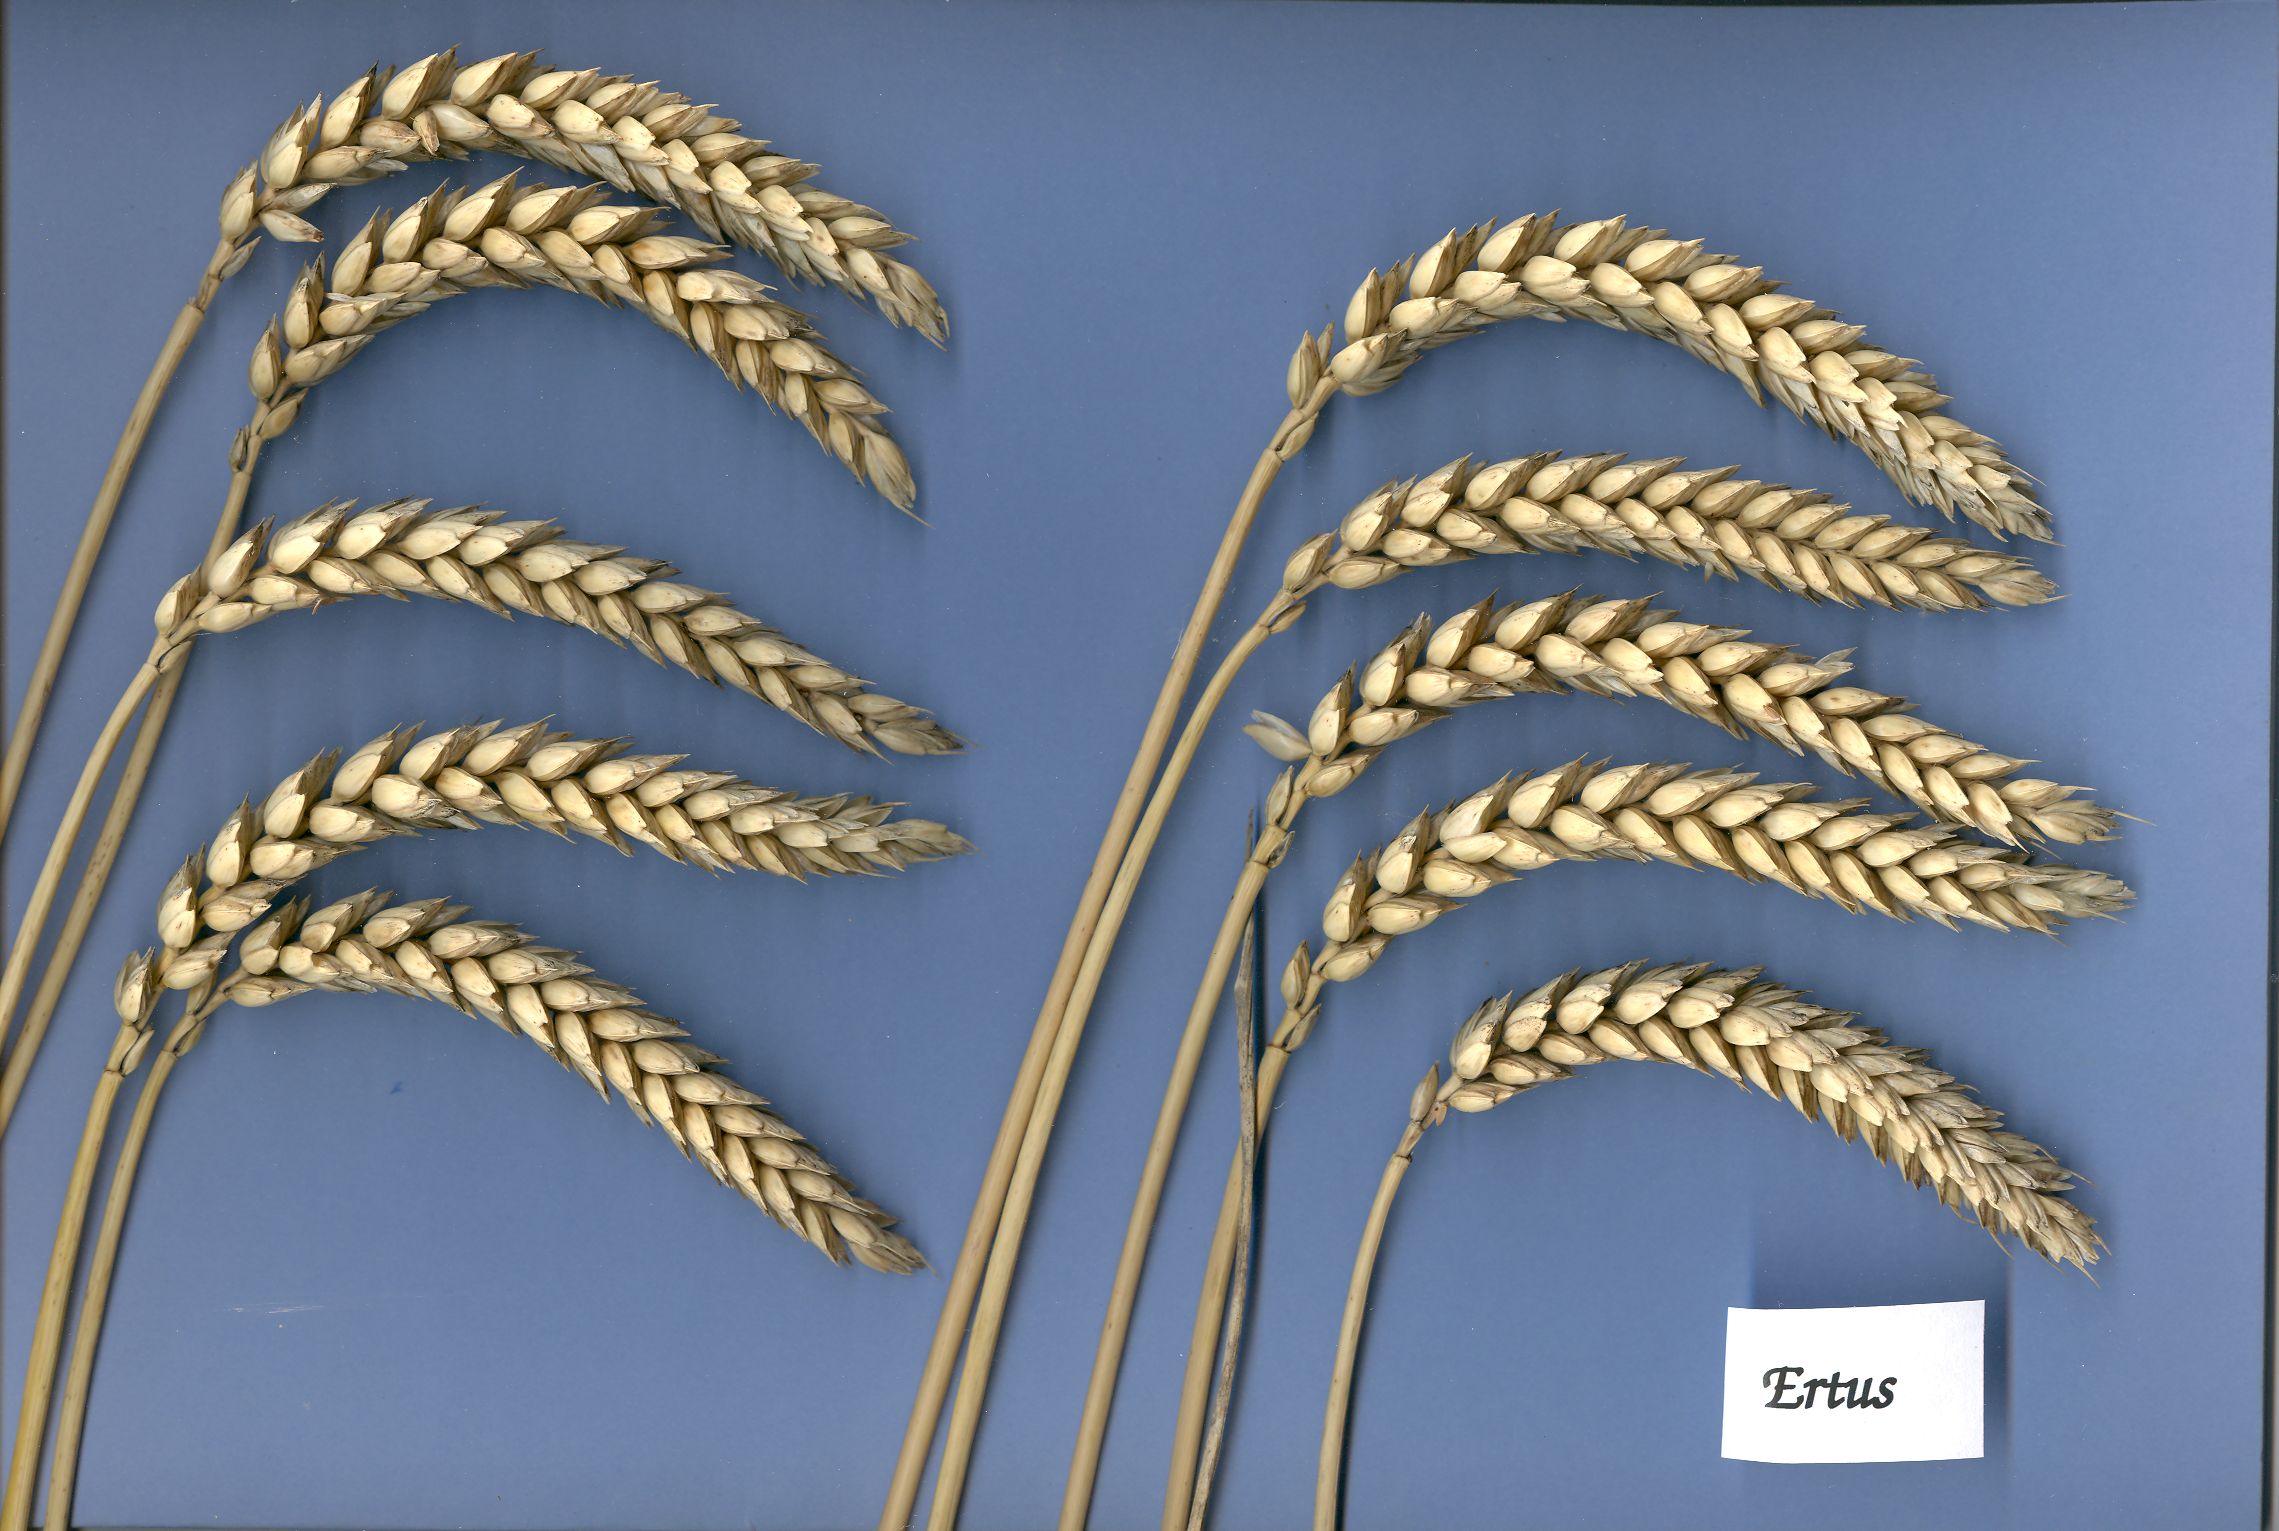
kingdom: Plantae
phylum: Tracheophyta
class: Liliopsida
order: Poales
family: Poaceae
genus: Triticum
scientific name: Triticum aestivum
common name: Common wheat
